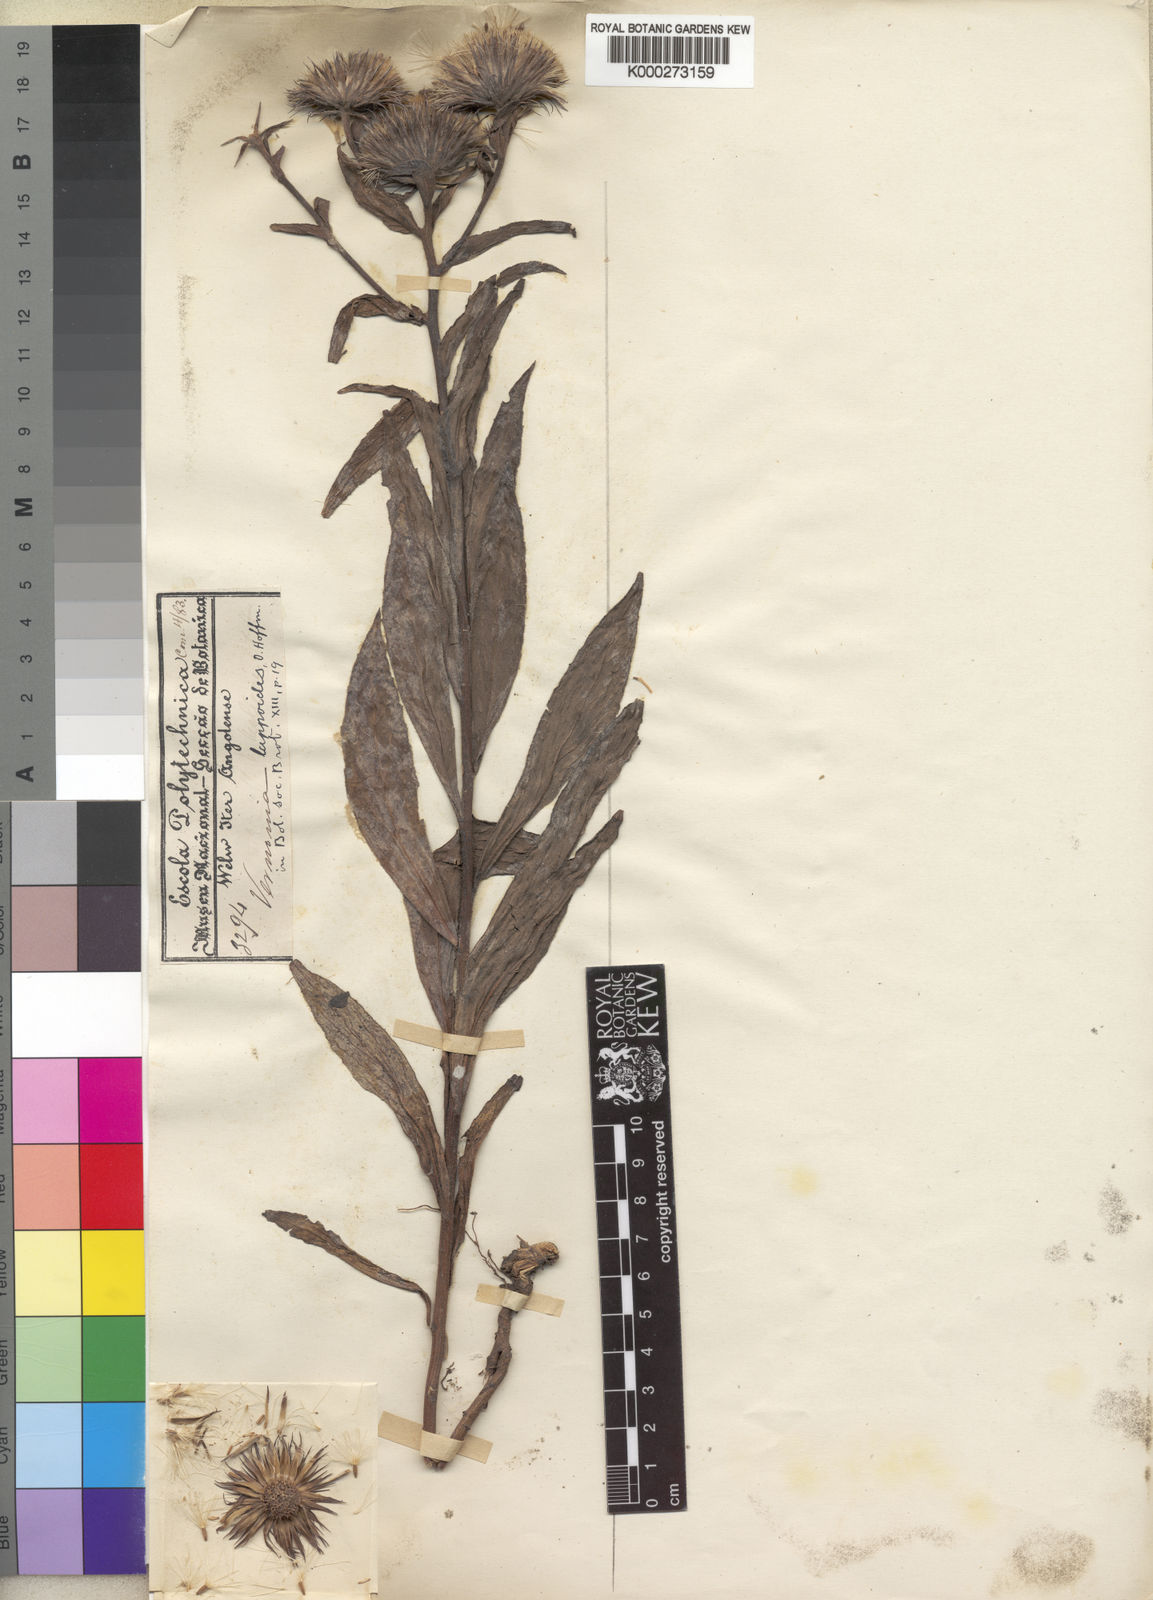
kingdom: Plantae
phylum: Tracheophyta
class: Magnoliopsida
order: Asterales
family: Asteraceae
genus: Vernoniastrum
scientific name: Vernoniastrum musofense
